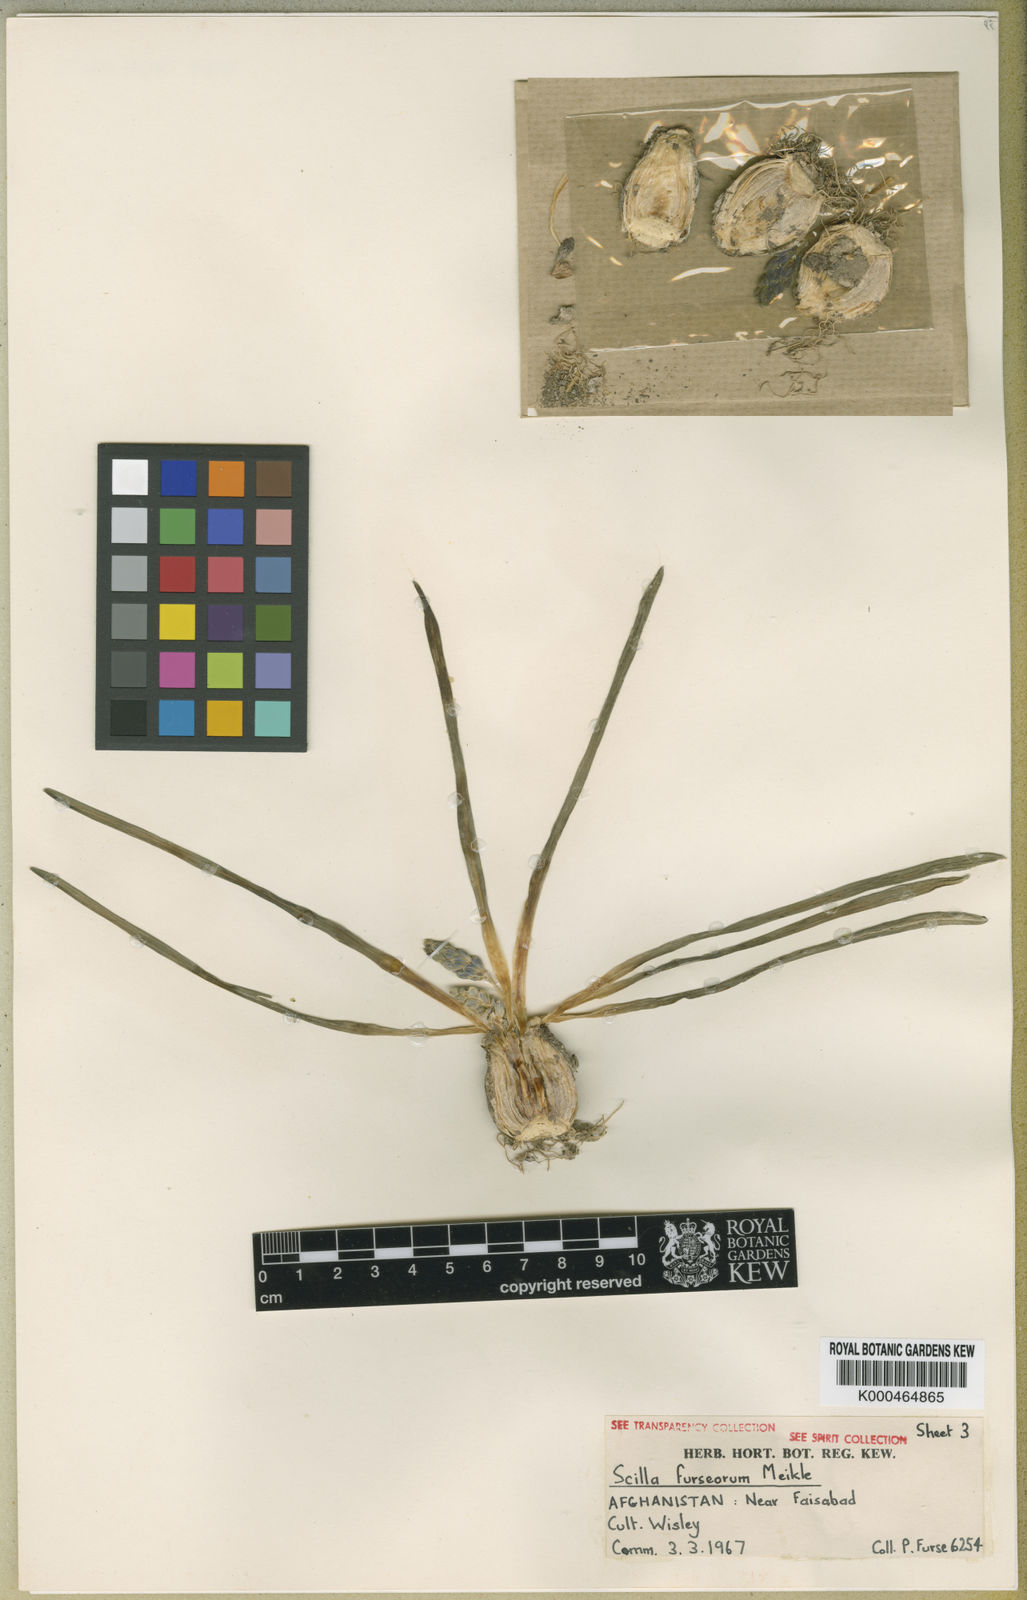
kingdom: Plantae
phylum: Tracheophyta
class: Liliopsida
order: Asparagales
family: Asparagaceae
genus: Fessia
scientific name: Fessia furseorum
